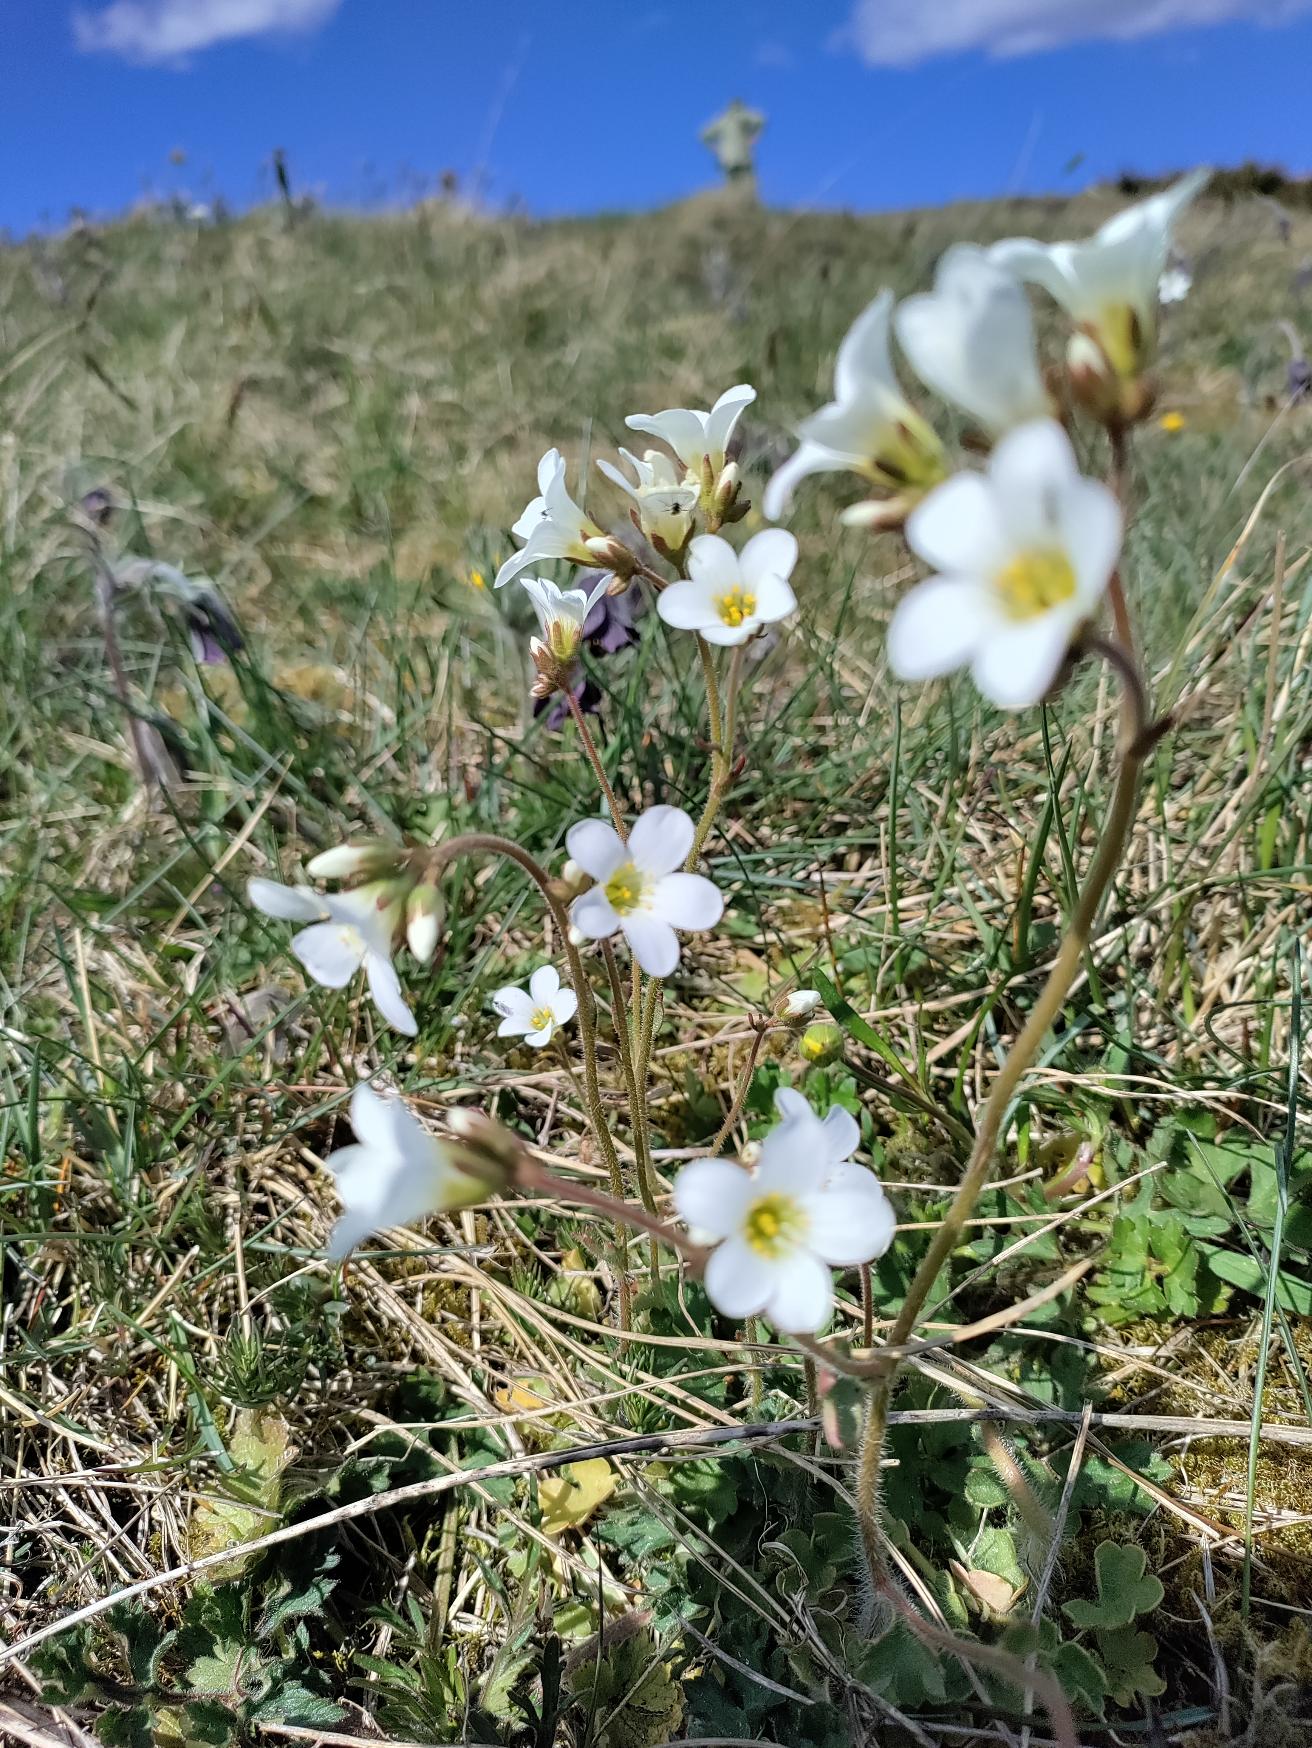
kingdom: Plantae
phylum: Tracheophyta
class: Magnoliopsida
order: Saxifragales
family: Saxifragaceae
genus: Saxifraga
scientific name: Saxifraga granulata
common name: Kornet stenbræk
